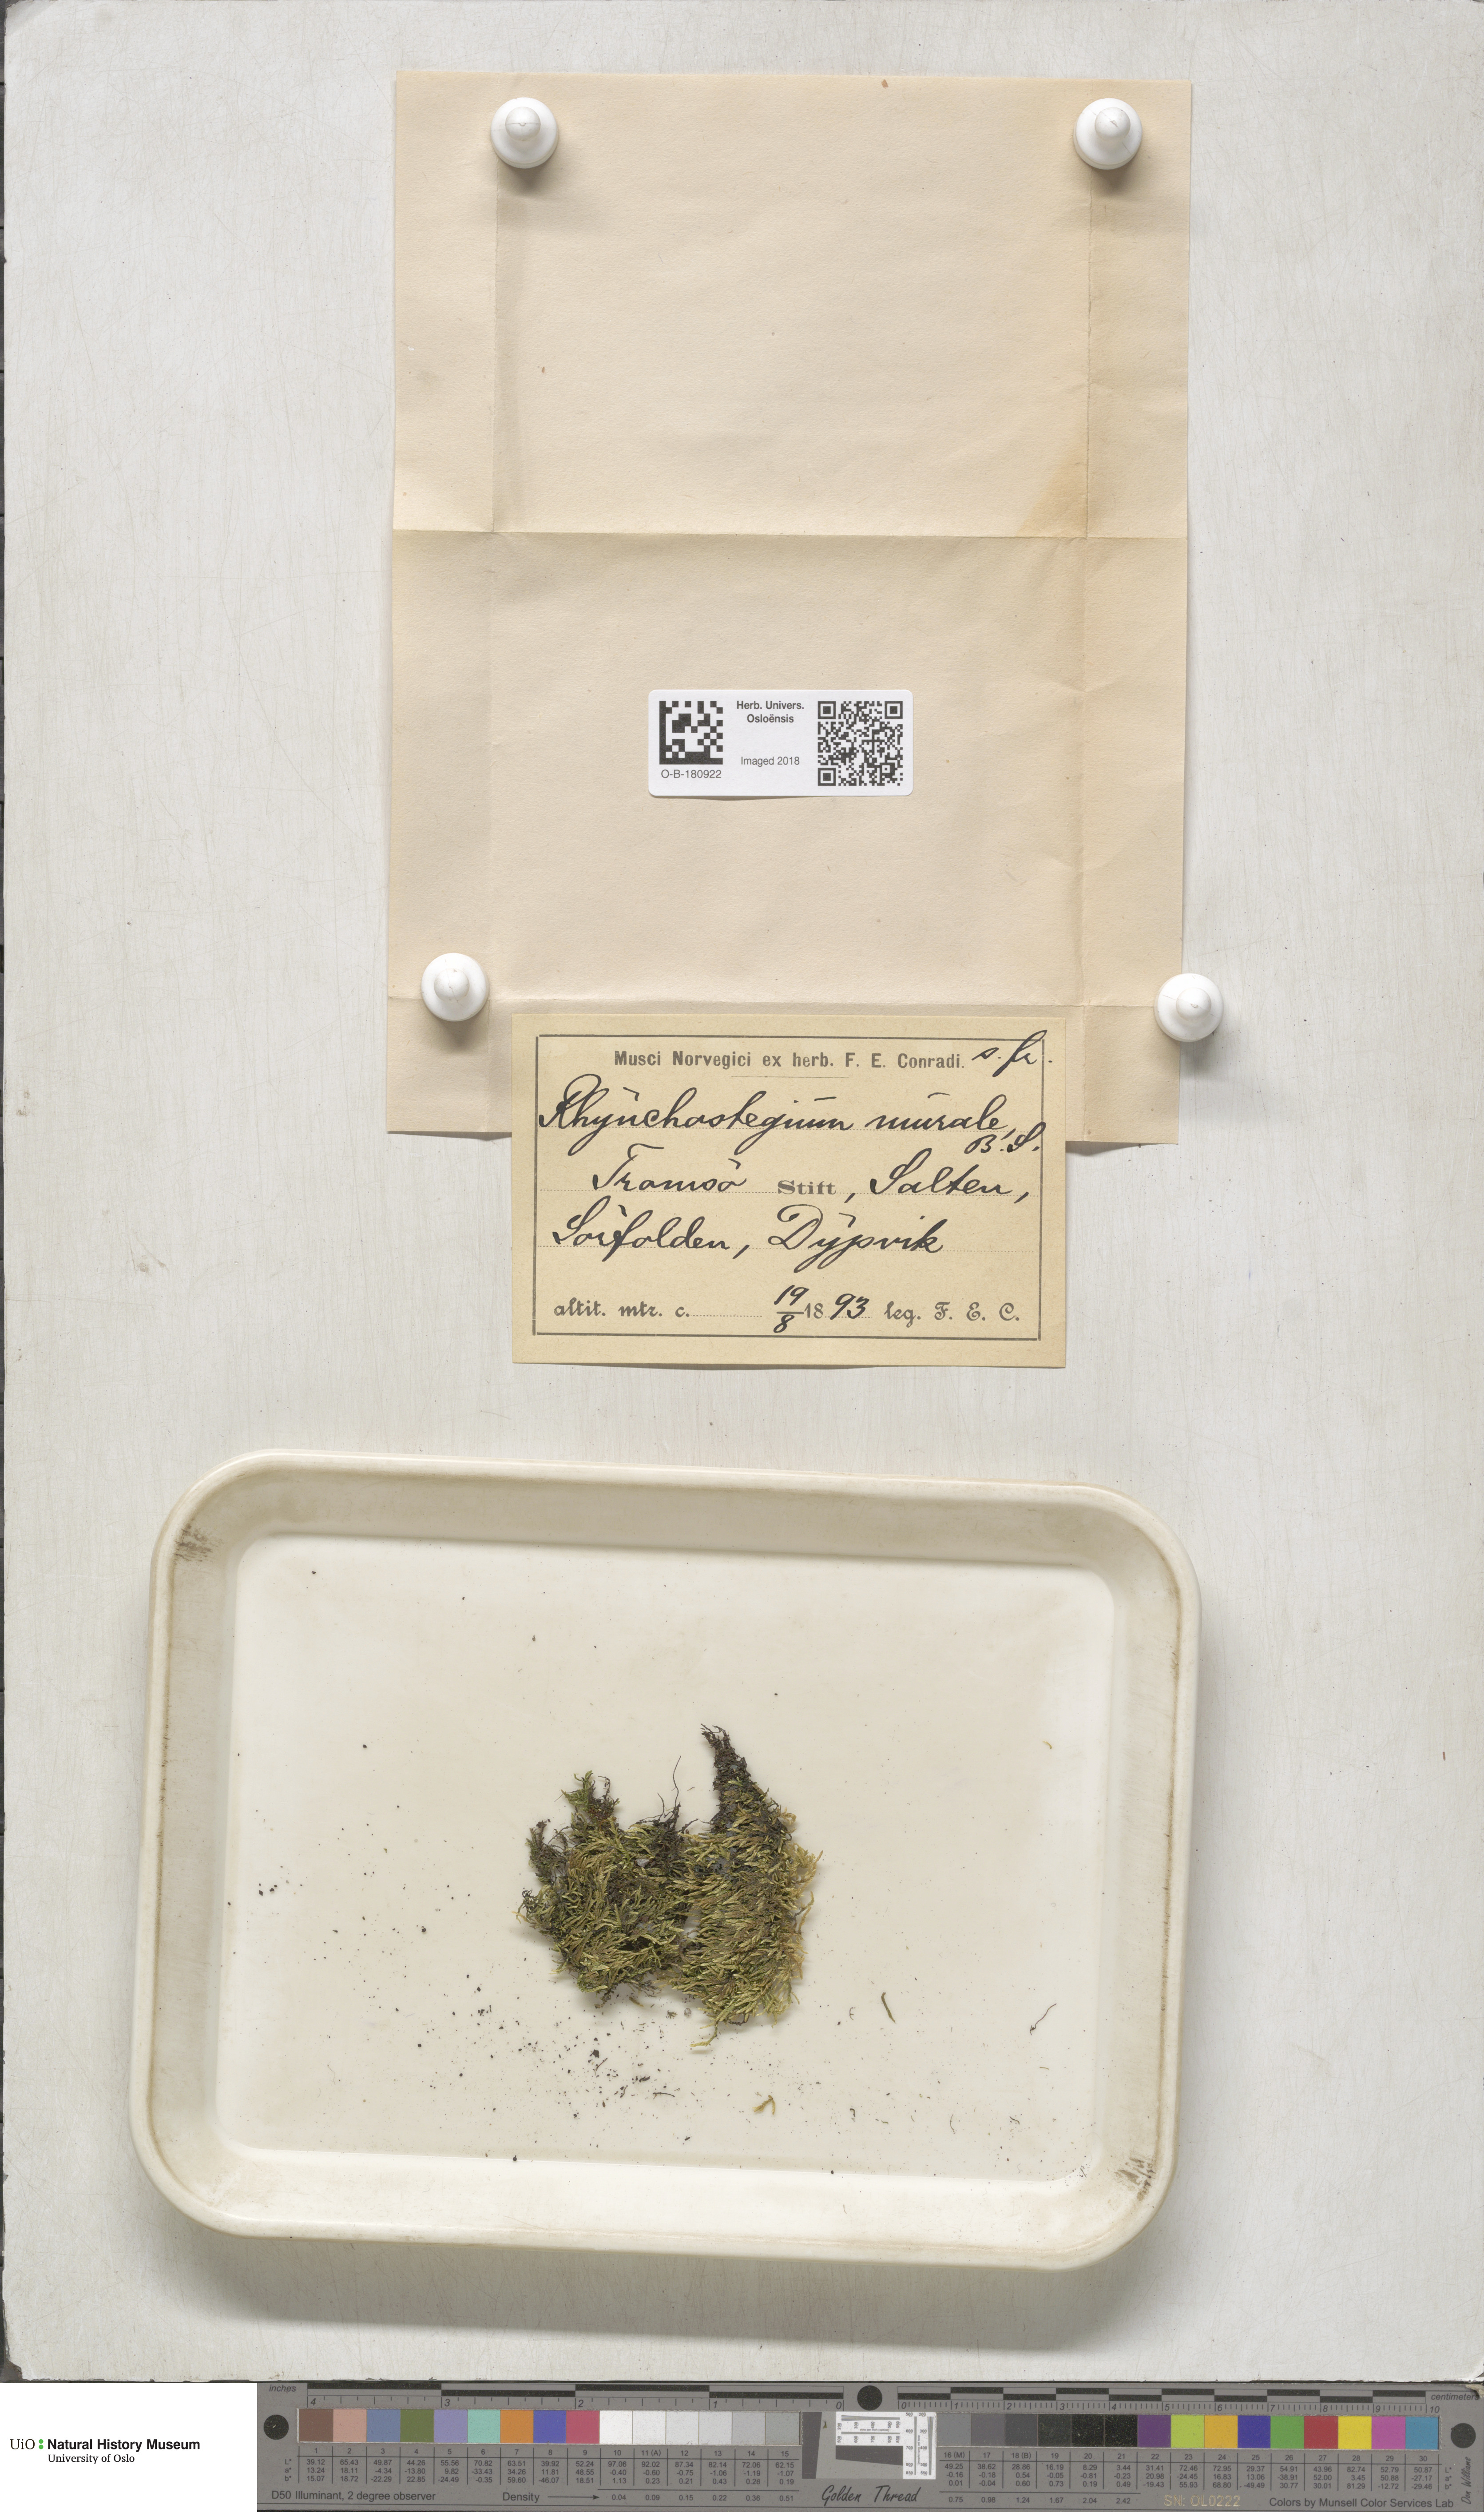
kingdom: Plantae
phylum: Bryophyta
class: Bryopsida
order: Hypnales
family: Brachytheciaceae
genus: Rhynchostegium
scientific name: Rhynchostegium murale
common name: Wall feather-moss
